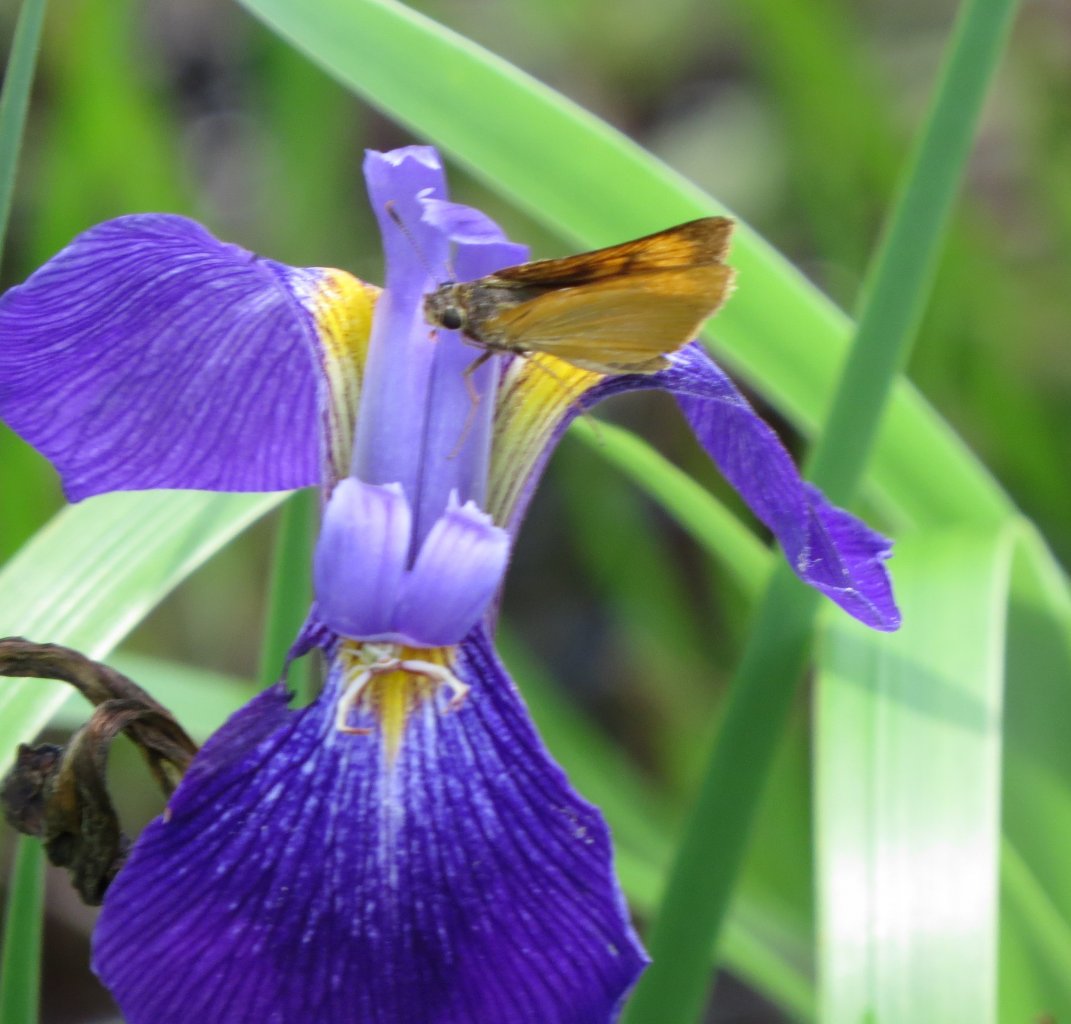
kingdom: Animalia
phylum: Arthropoda
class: Insecta
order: Lepidoptera
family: Hesperiidae
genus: Atrytone
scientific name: Atrytone delaware
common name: Delaware Skipper
